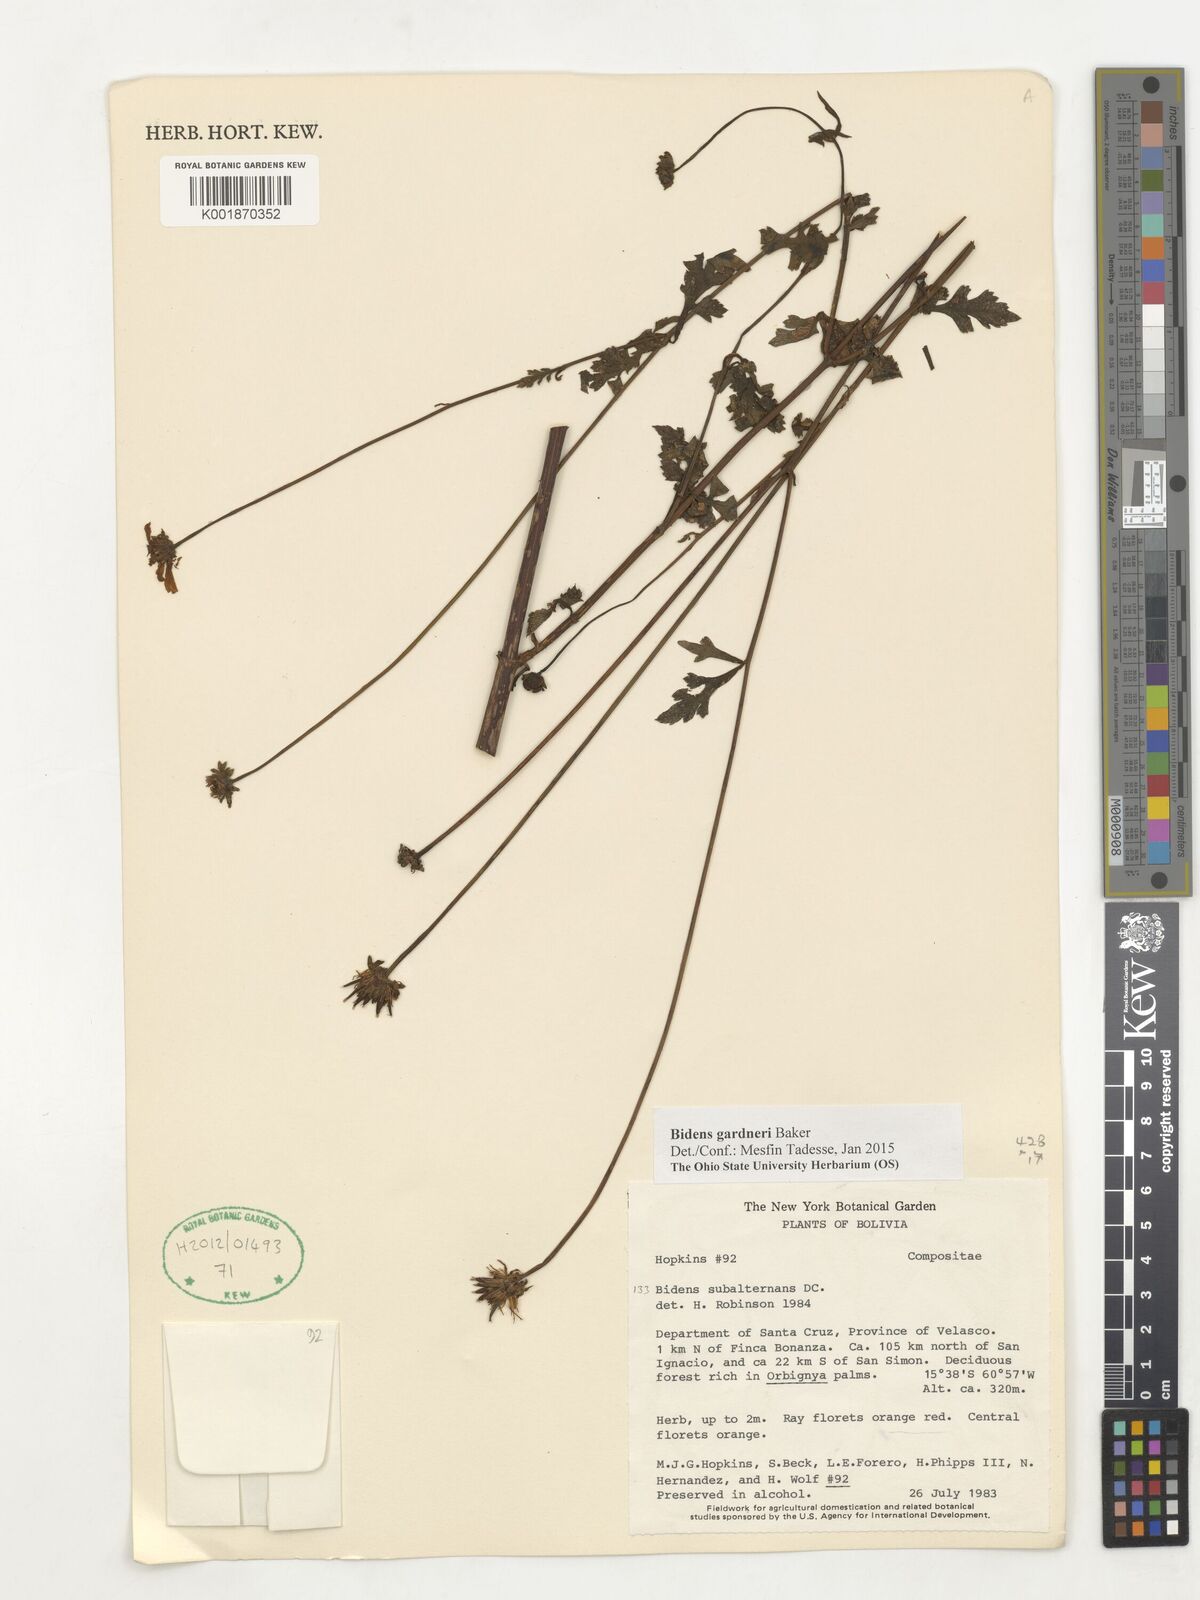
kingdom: Plantae
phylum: Tracheophyta
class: Magnoliopsida
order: Asterales
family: Asteraceae
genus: Bidens
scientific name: Bidens gardneri
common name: Ridge beggartick
